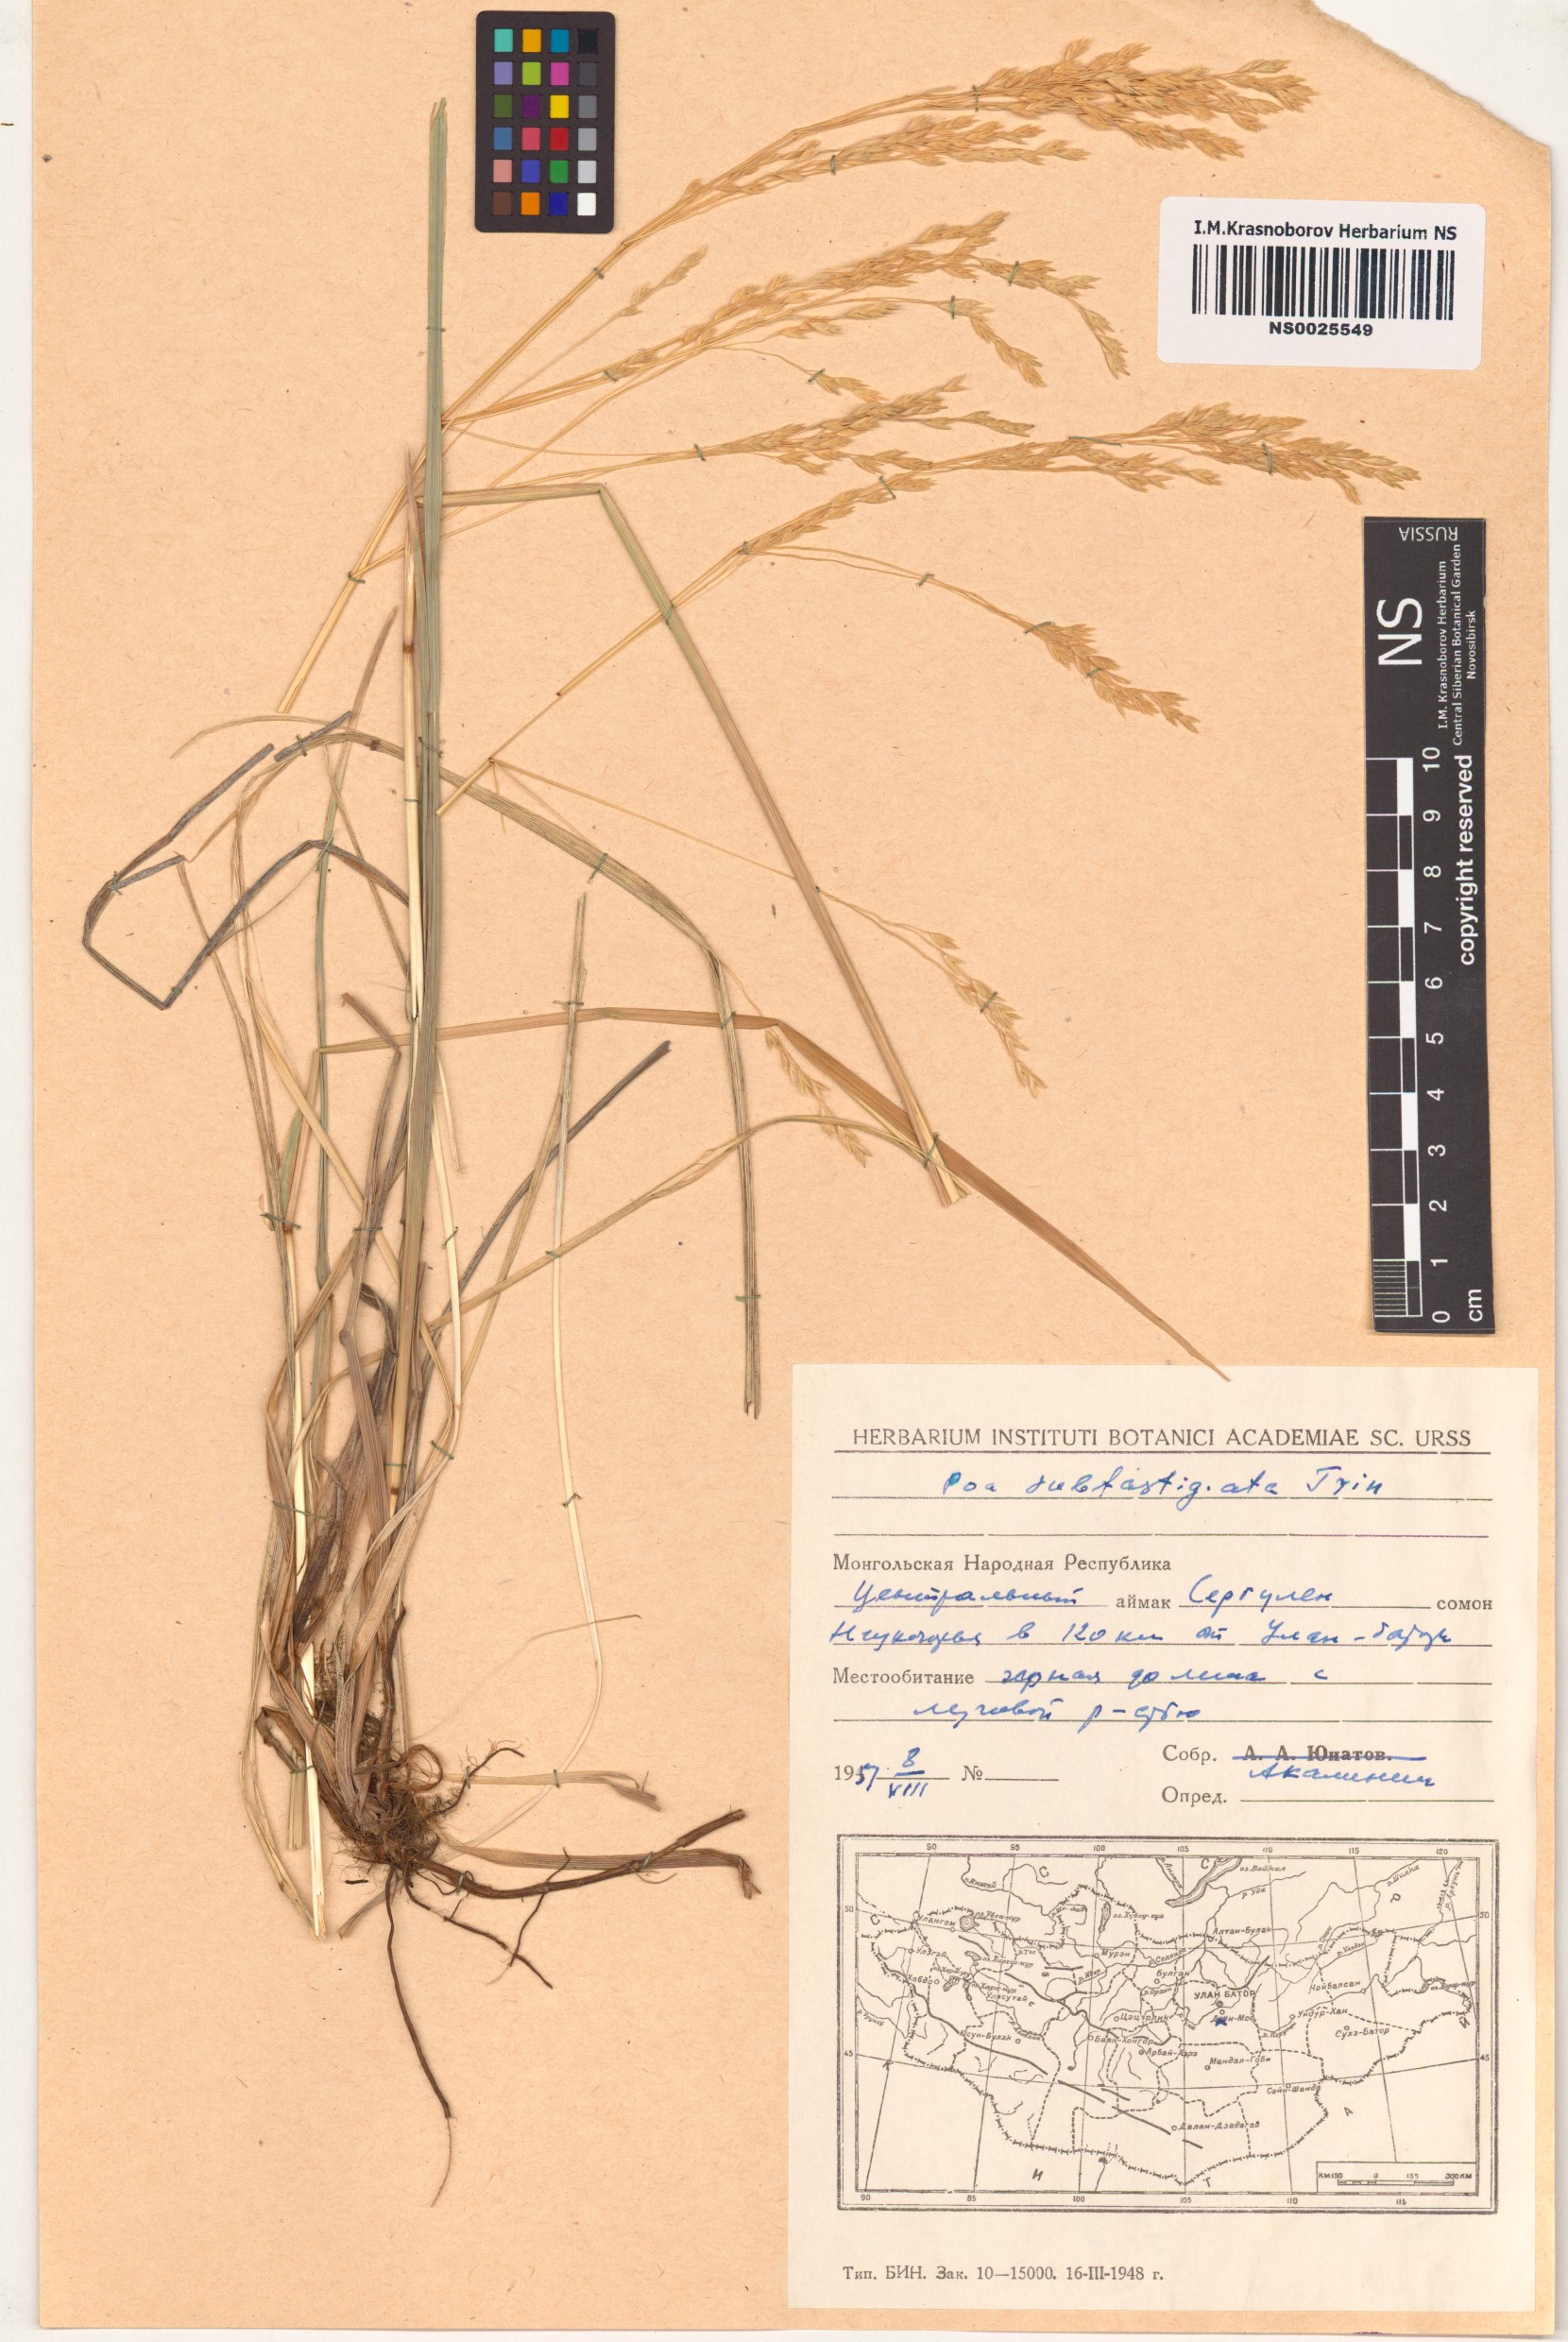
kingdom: Plantae
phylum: Tracheophyta
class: Liliopsida
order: Poales
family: Poaceae
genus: Arctopoa
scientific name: Arctopoa subfastigiata
